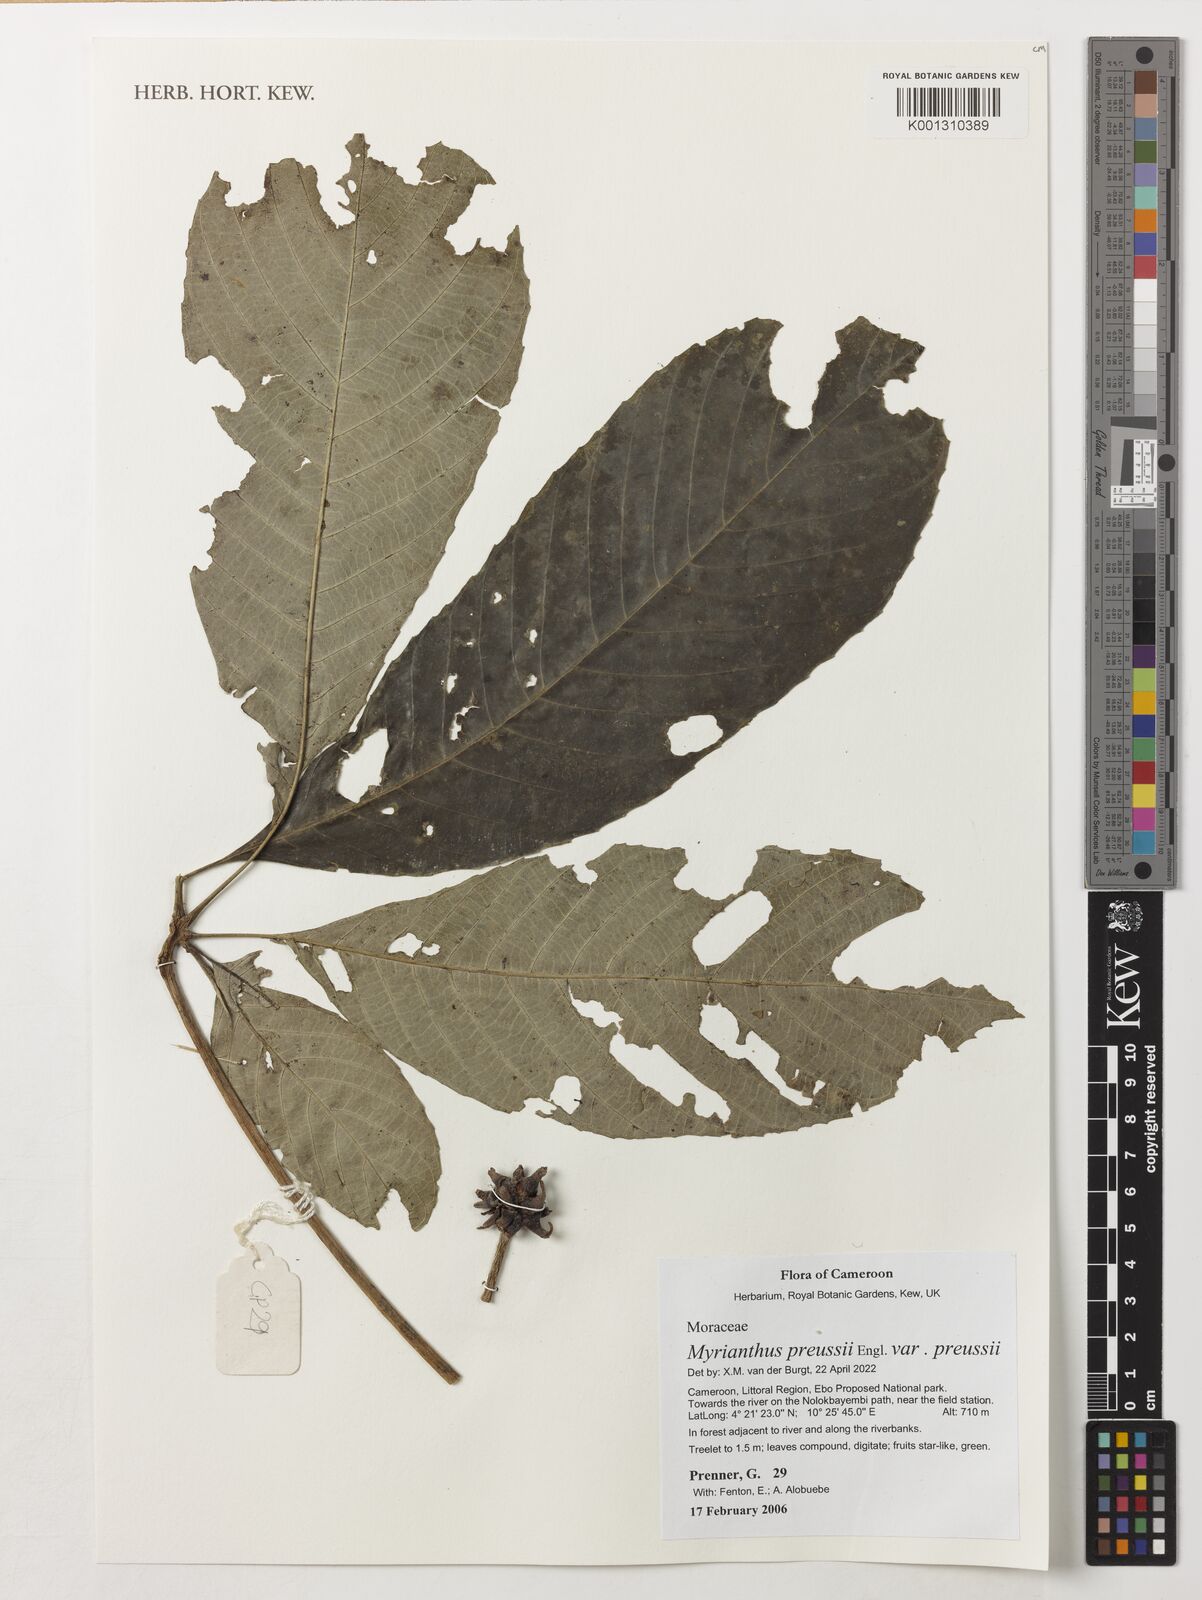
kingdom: Plantae
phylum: Tracheophyta
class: Magnoliopsida
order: Rosales
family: Urticaceae
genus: Myrianthus
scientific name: Myrianthus preussii
